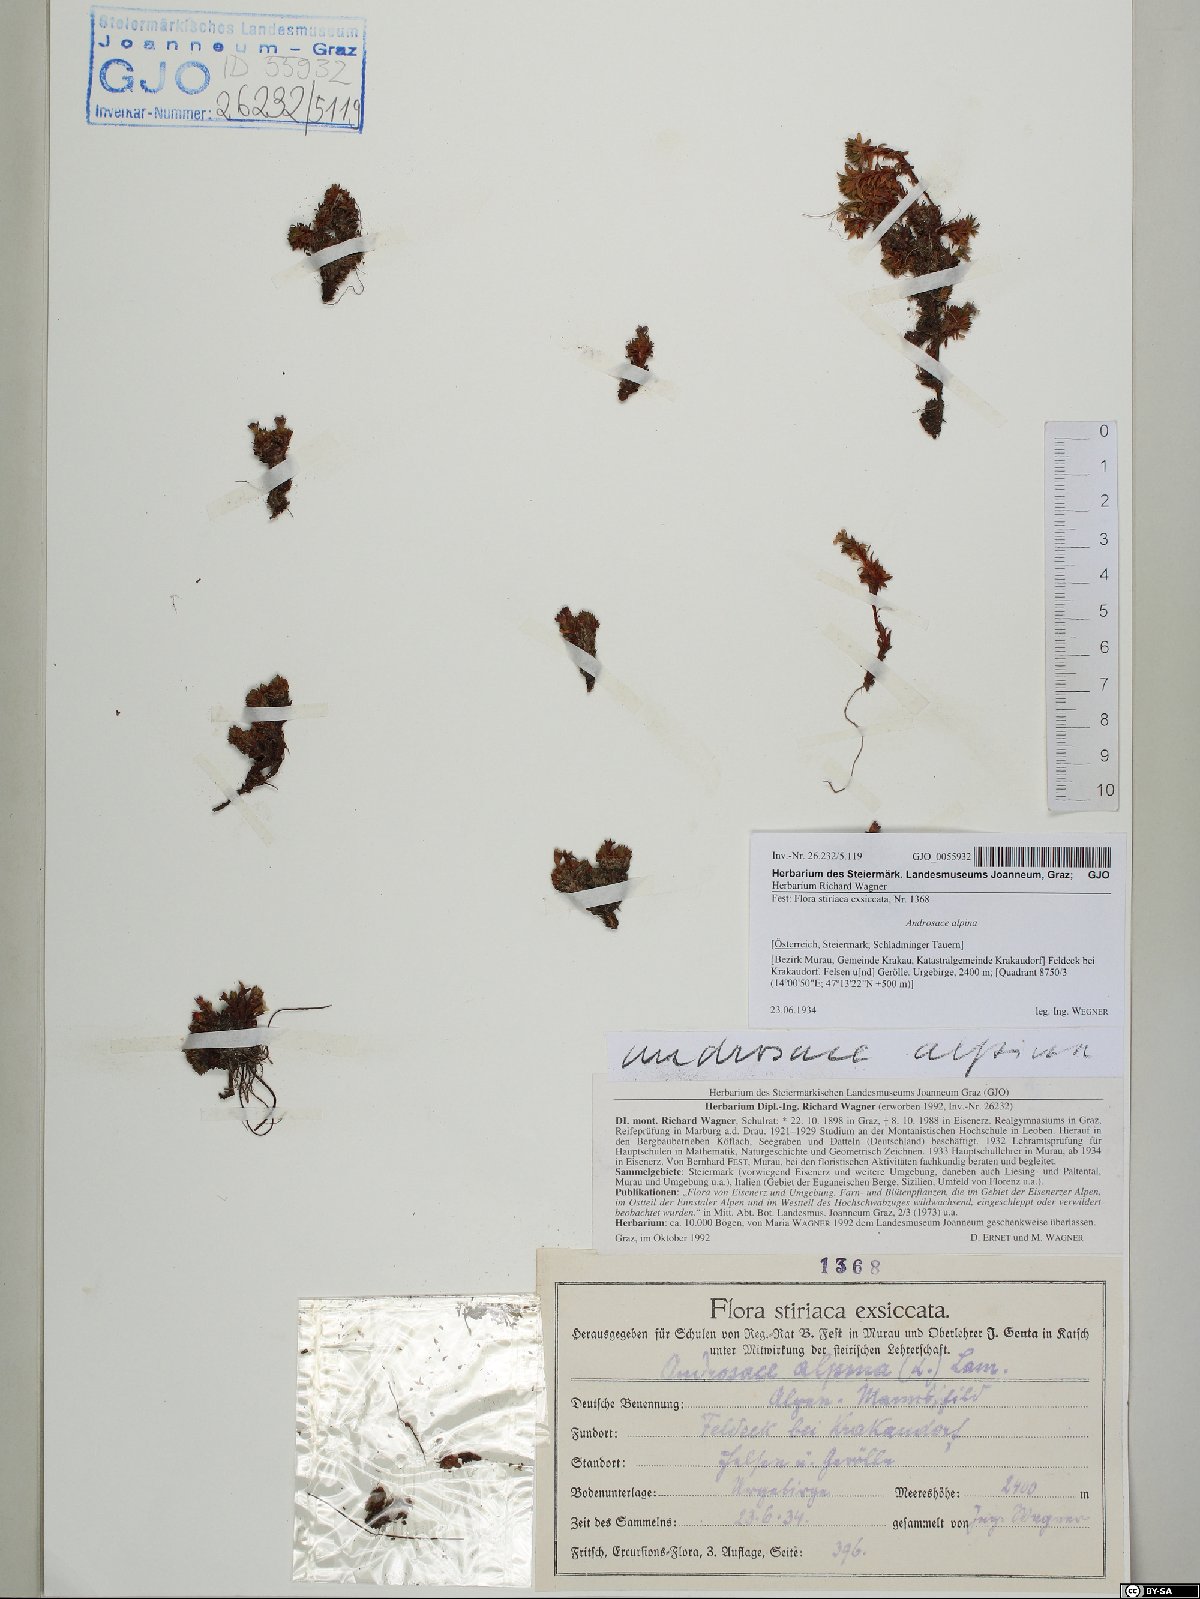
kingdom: Plantae
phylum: Tracheophyta
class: Magnoliopsida
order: Ericales
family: Primulaceae
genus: Androsace
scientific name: Androsace alpina
